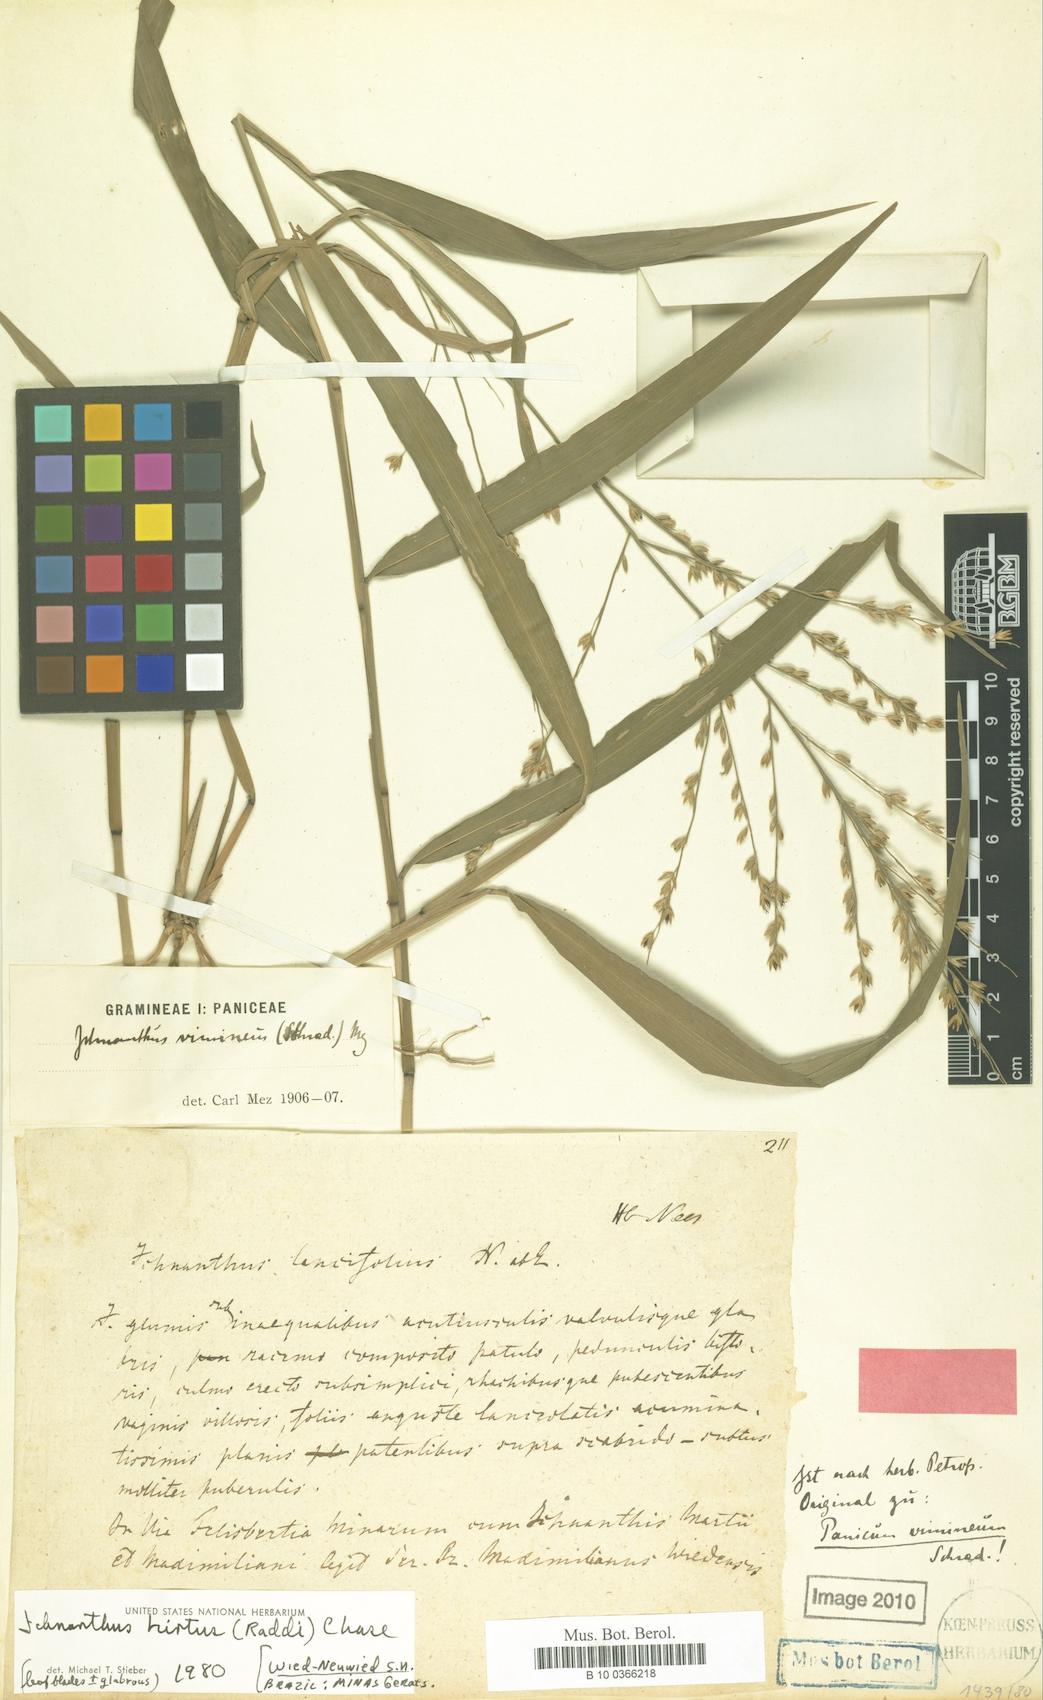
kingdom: Plantae
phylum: Tracheophyta
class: Liliopsida
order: Poales
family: Poaceae
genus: Panicum
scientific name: Panicum vimineum
